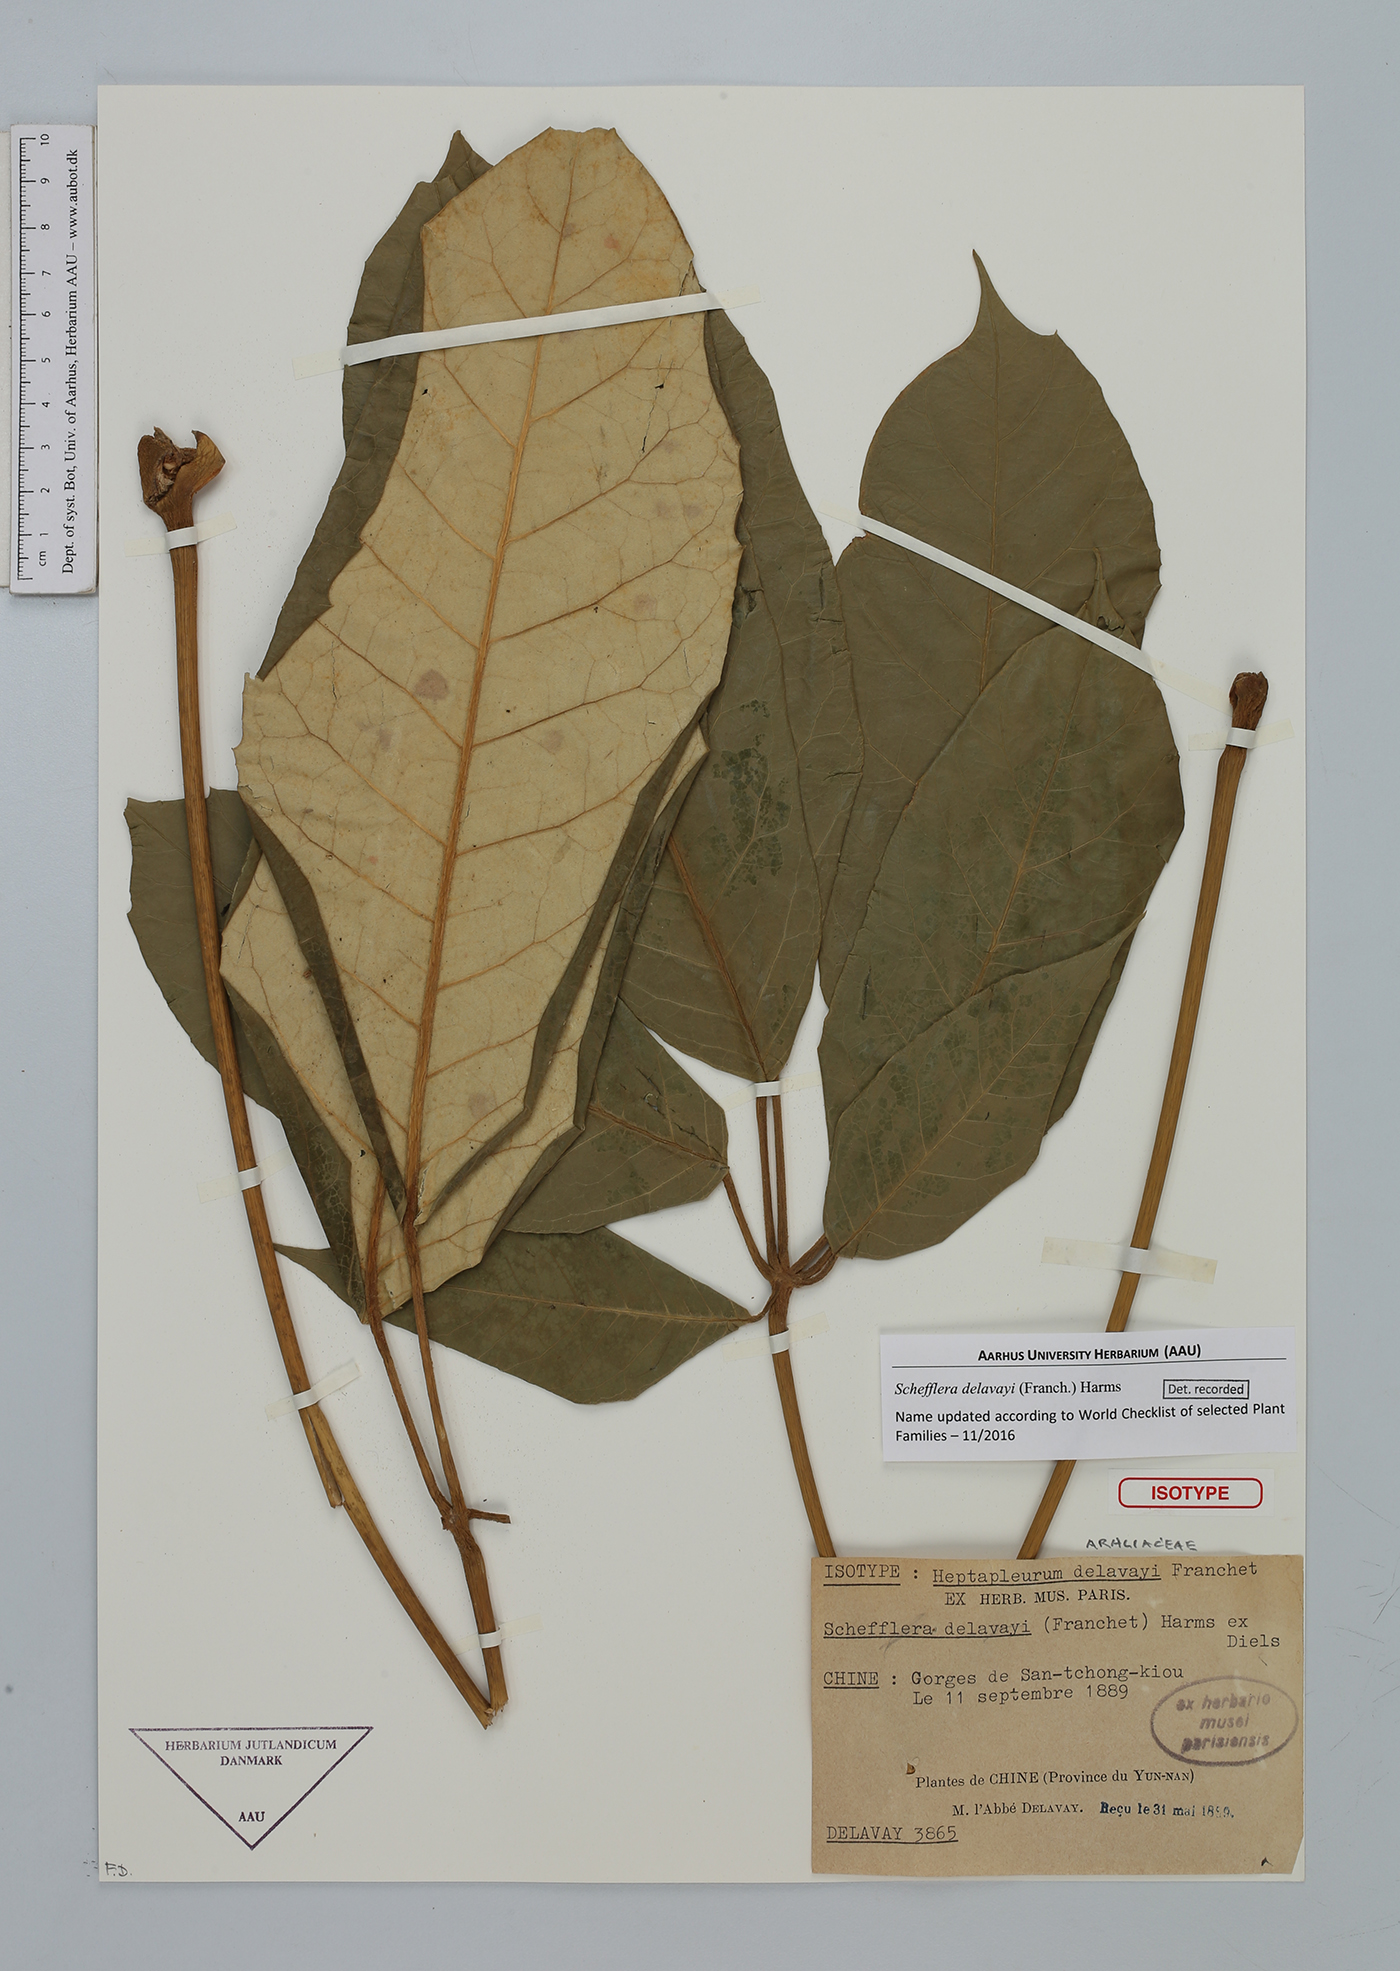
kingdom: Plantae
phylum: Tracheophyta
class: Magnoliopsida
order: Apiales
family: Araliaceae
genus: Heptapleurum
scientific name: Heptapleurum delavayi
